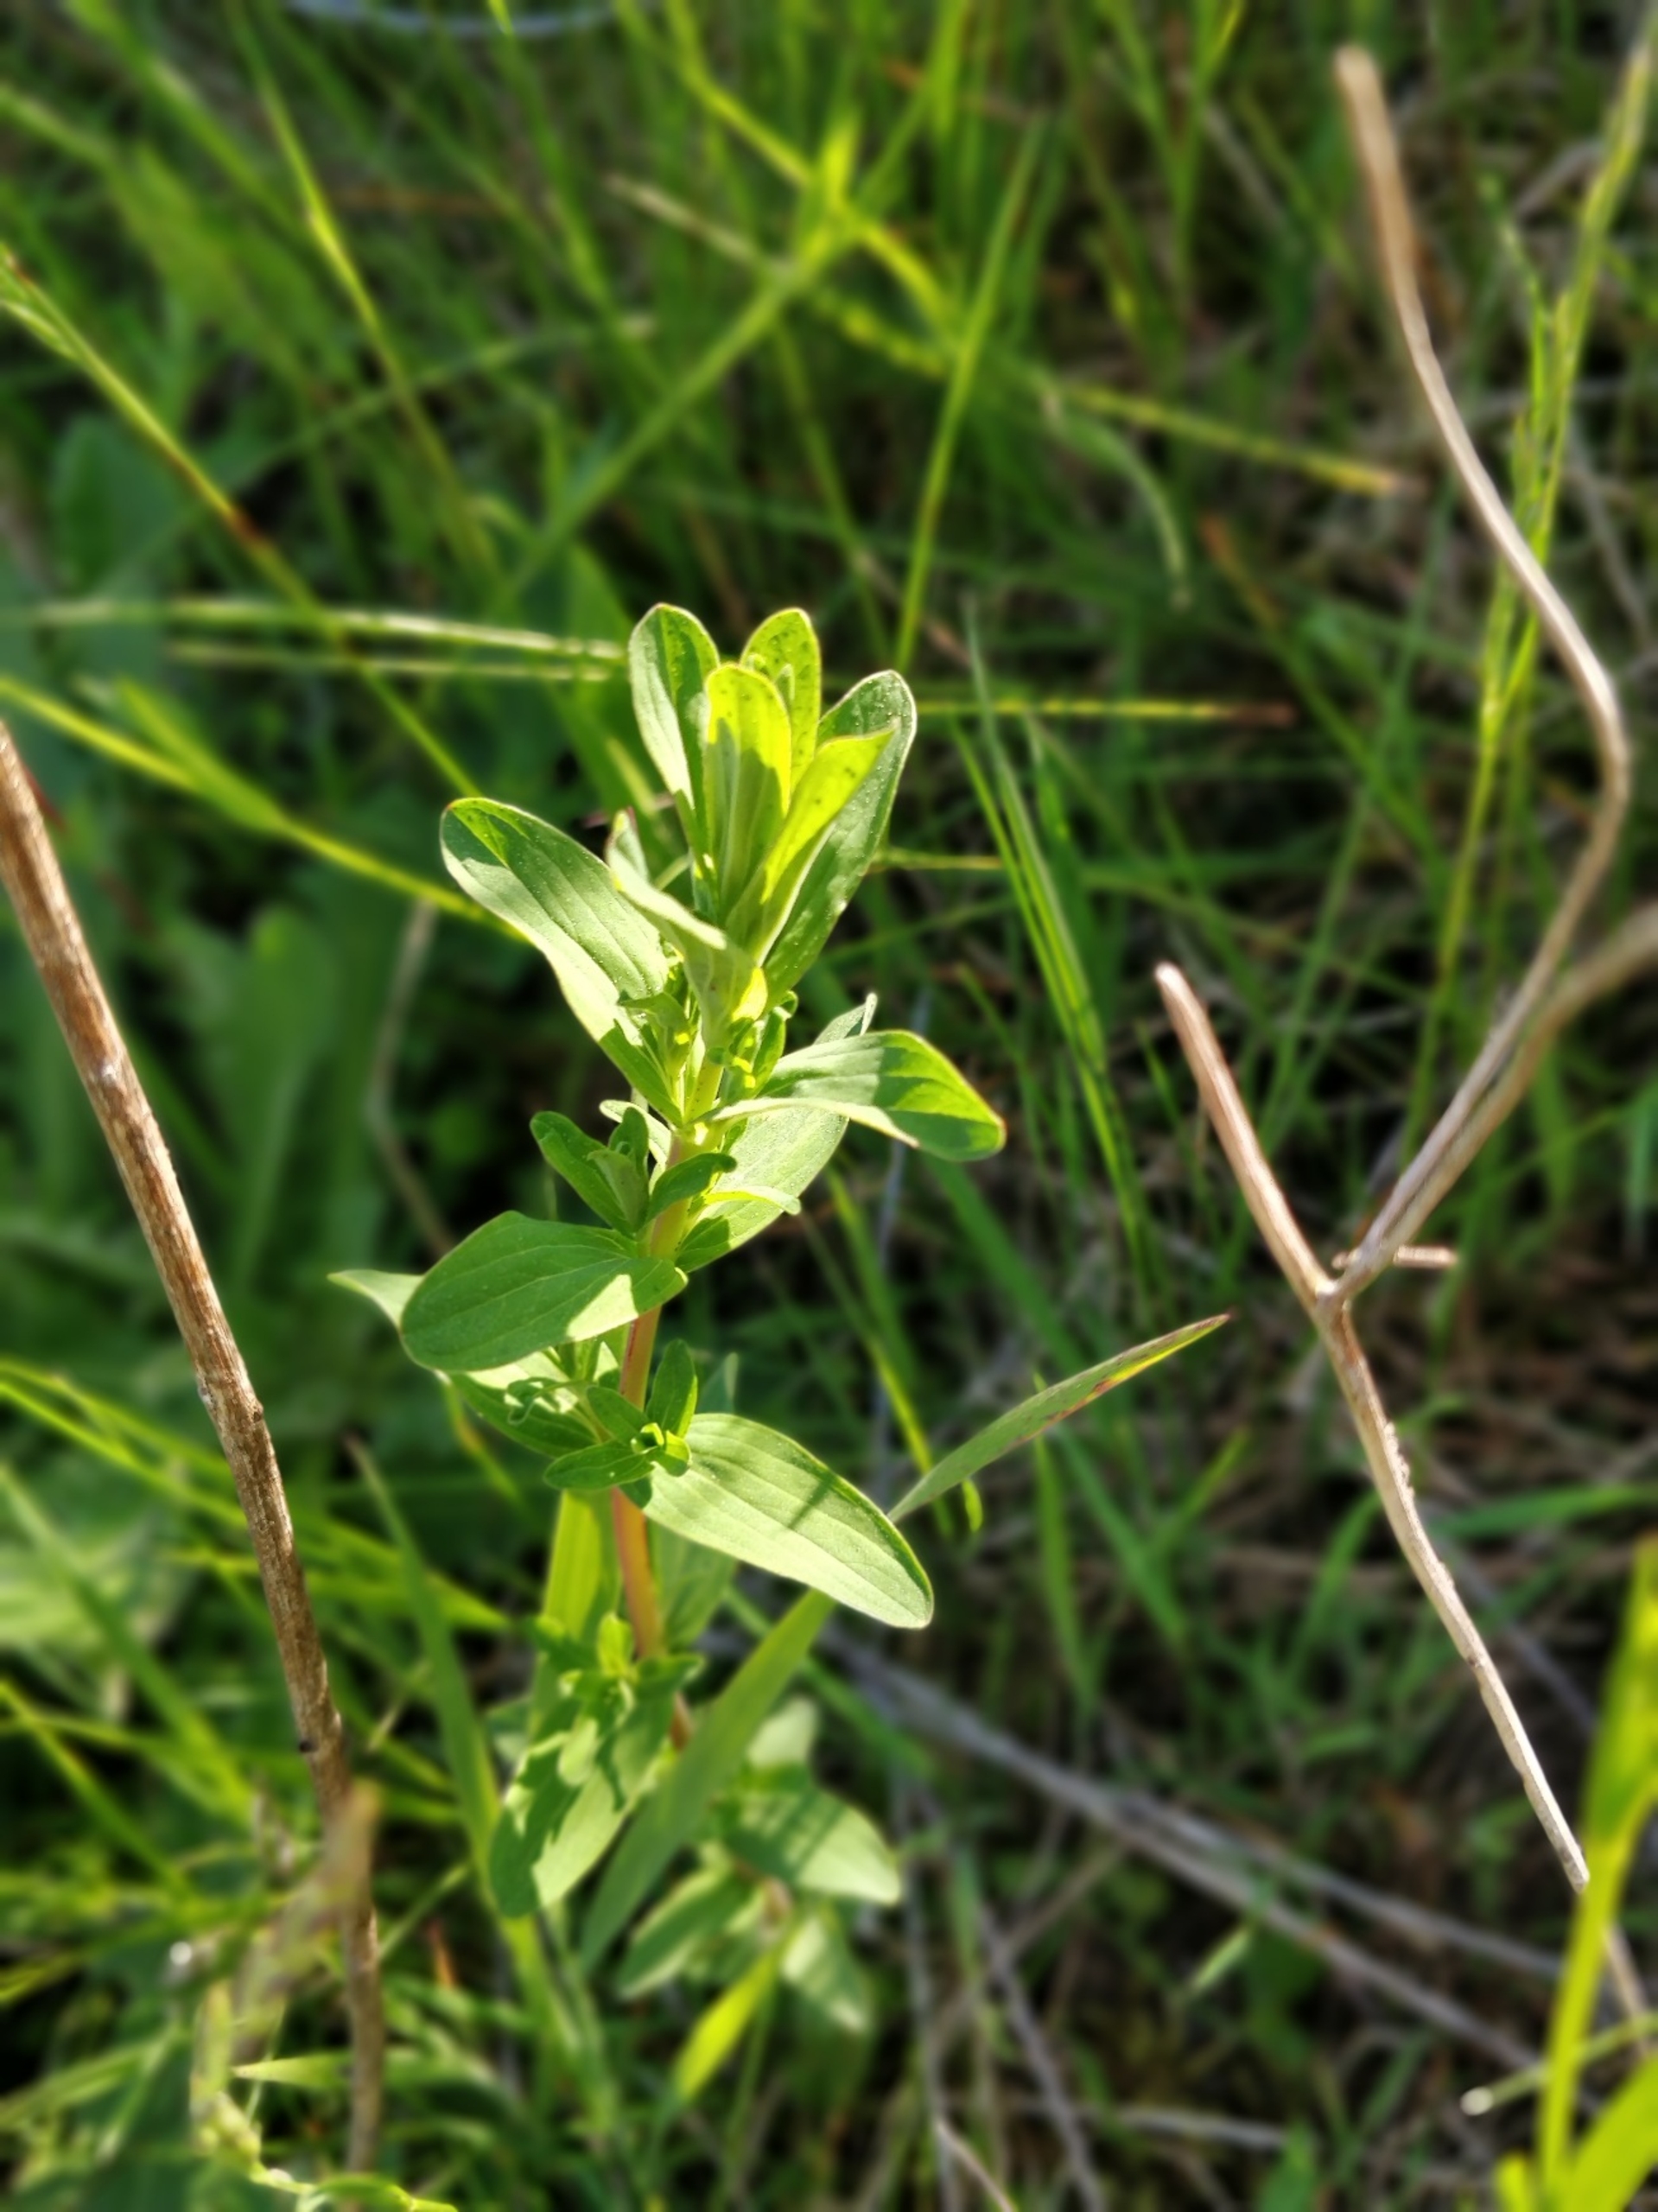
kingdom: Plantae
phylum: Tracheophyta
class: Magnoliopsida
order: Malpighiales
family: Hypericaceae
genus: Hypericum
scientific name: Hypericum perforatum
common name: Prikbladet perikon
